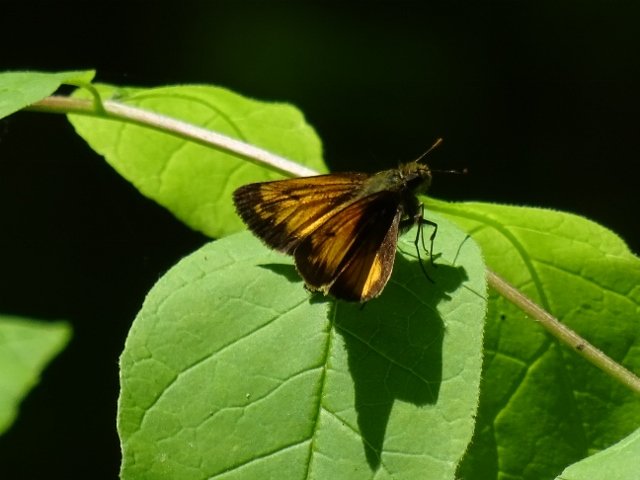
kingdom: Animalia
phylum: Arthropoda
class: Insecta
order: Lepidoptera
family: Hesperiidae
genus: Lon
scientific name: Lon hobomok
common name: Hobomok Skipper
